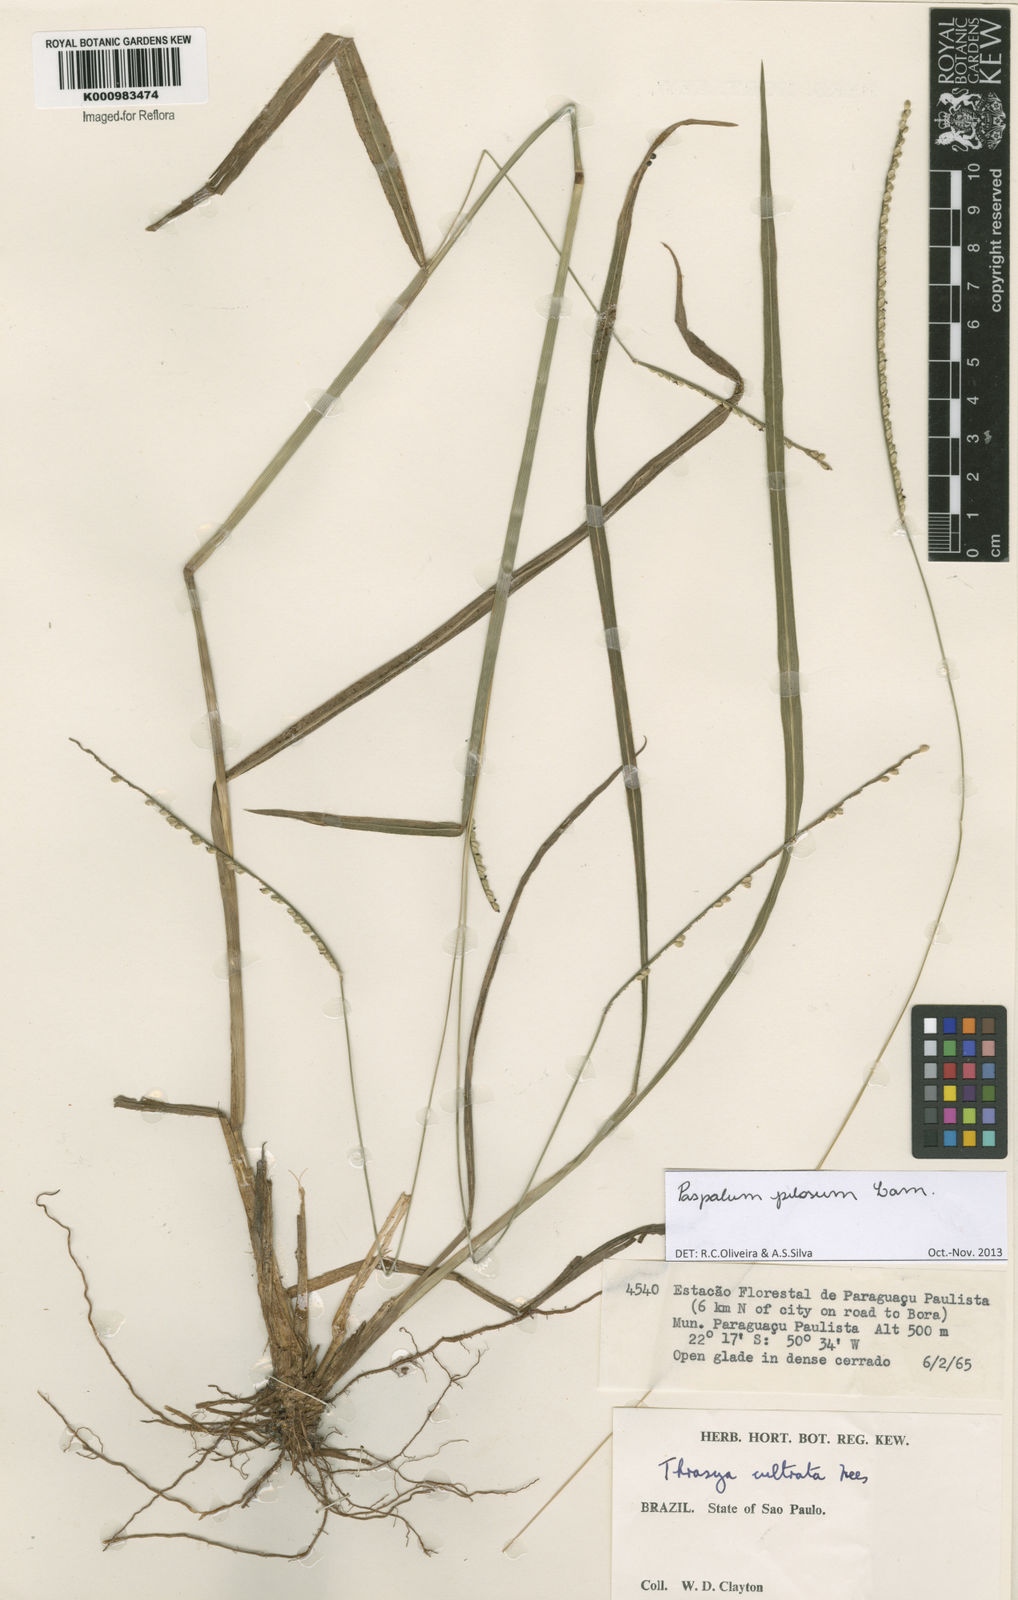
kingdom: Plantae
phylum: Tracheophyta
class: Liliopsida
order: Poales
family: Poaceae
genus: Paspalum
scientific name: Paspalum pilosum
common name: Crowngrass
